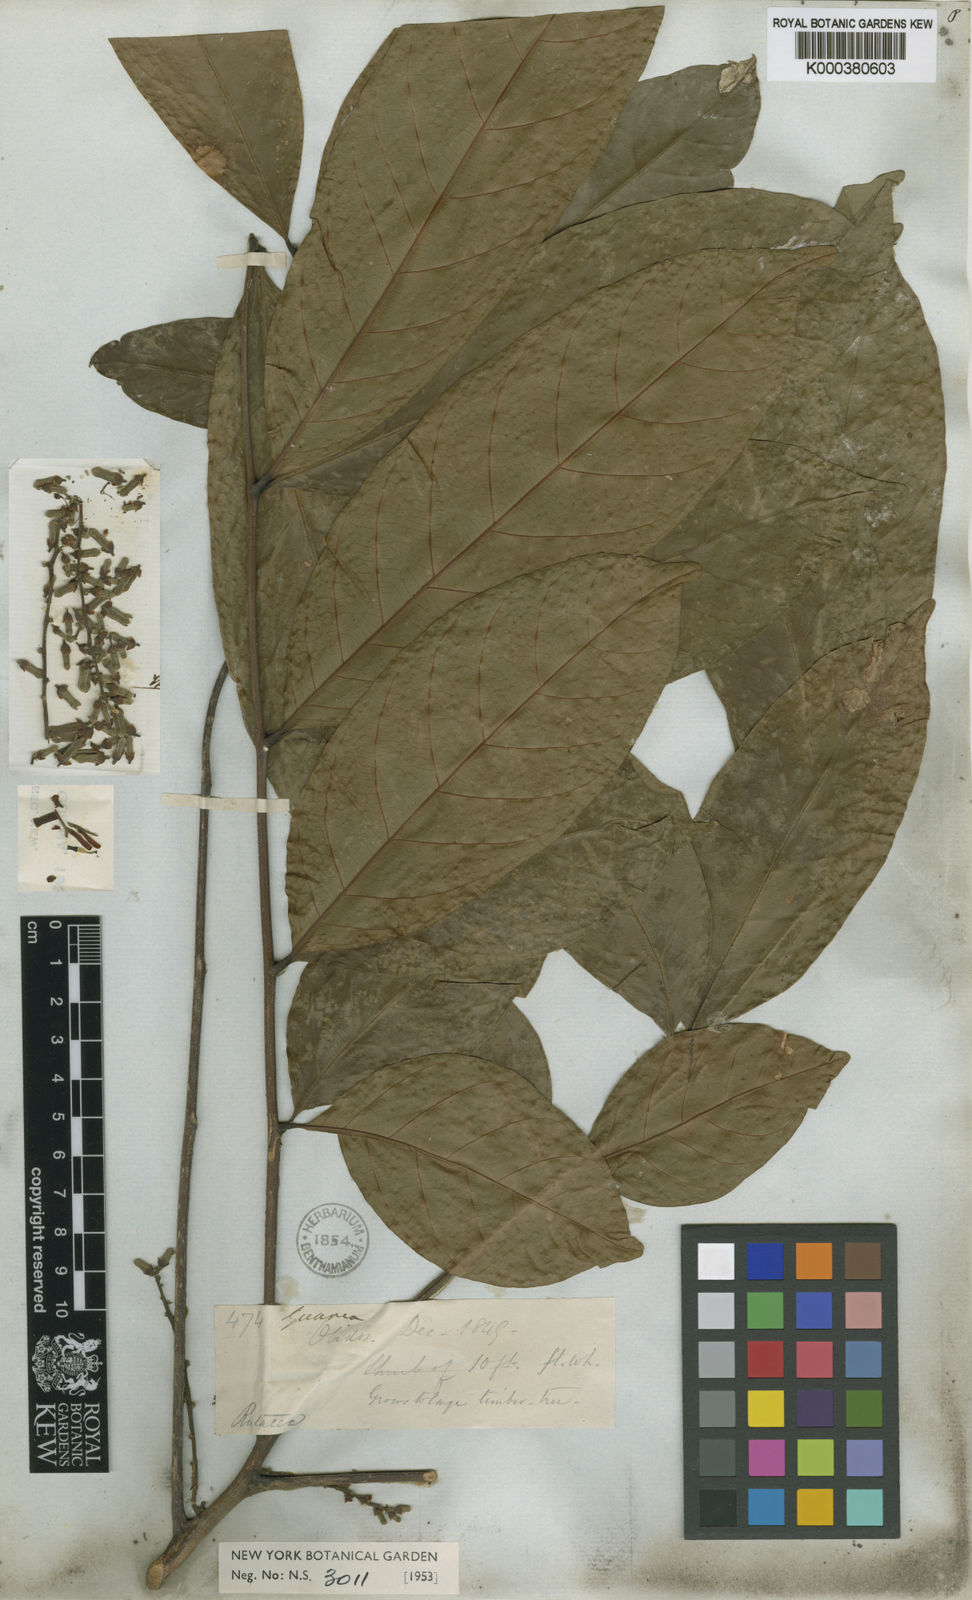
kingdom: Plantae
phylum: Tracheophyta
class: Magnoliopsida
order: Sapindales
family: Meliaceae
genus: Guarea
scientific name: Guarea macrophylla
